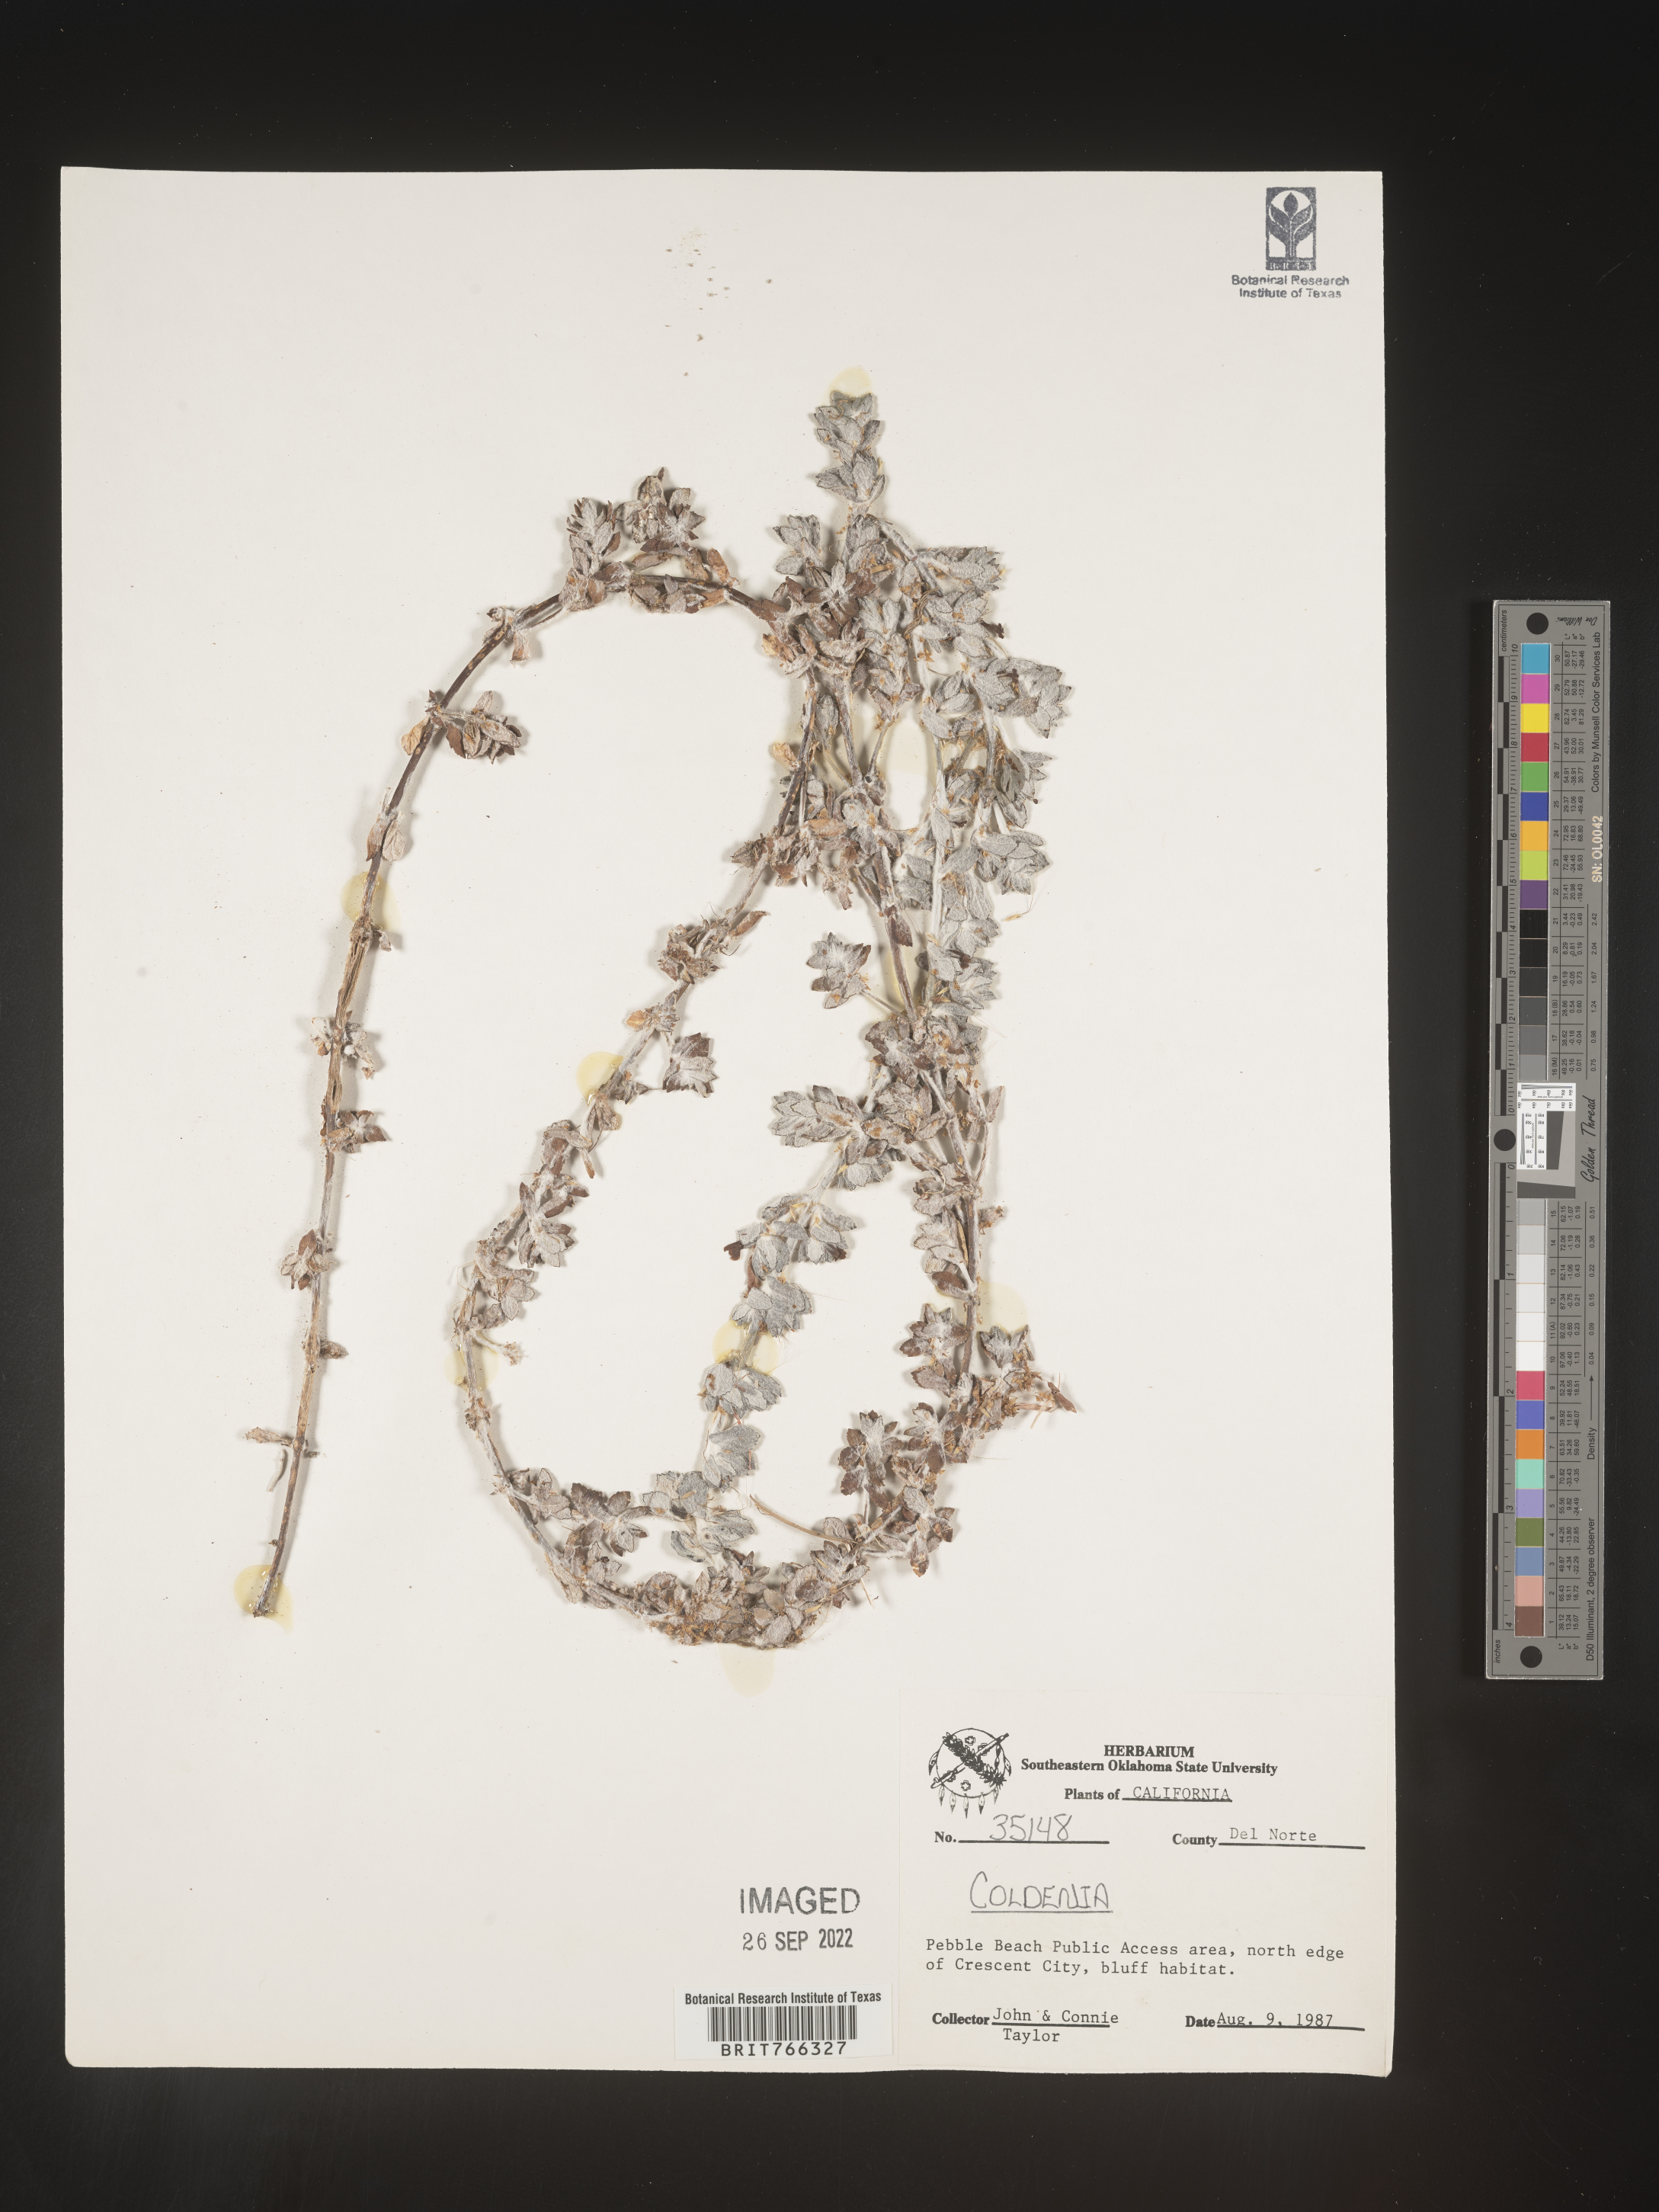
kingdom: Plantae
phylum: Tracheophyta
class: Magnoliopsida
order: Boraginales
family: Coldeniaceae
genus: Coldenia
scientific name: Coldenia
